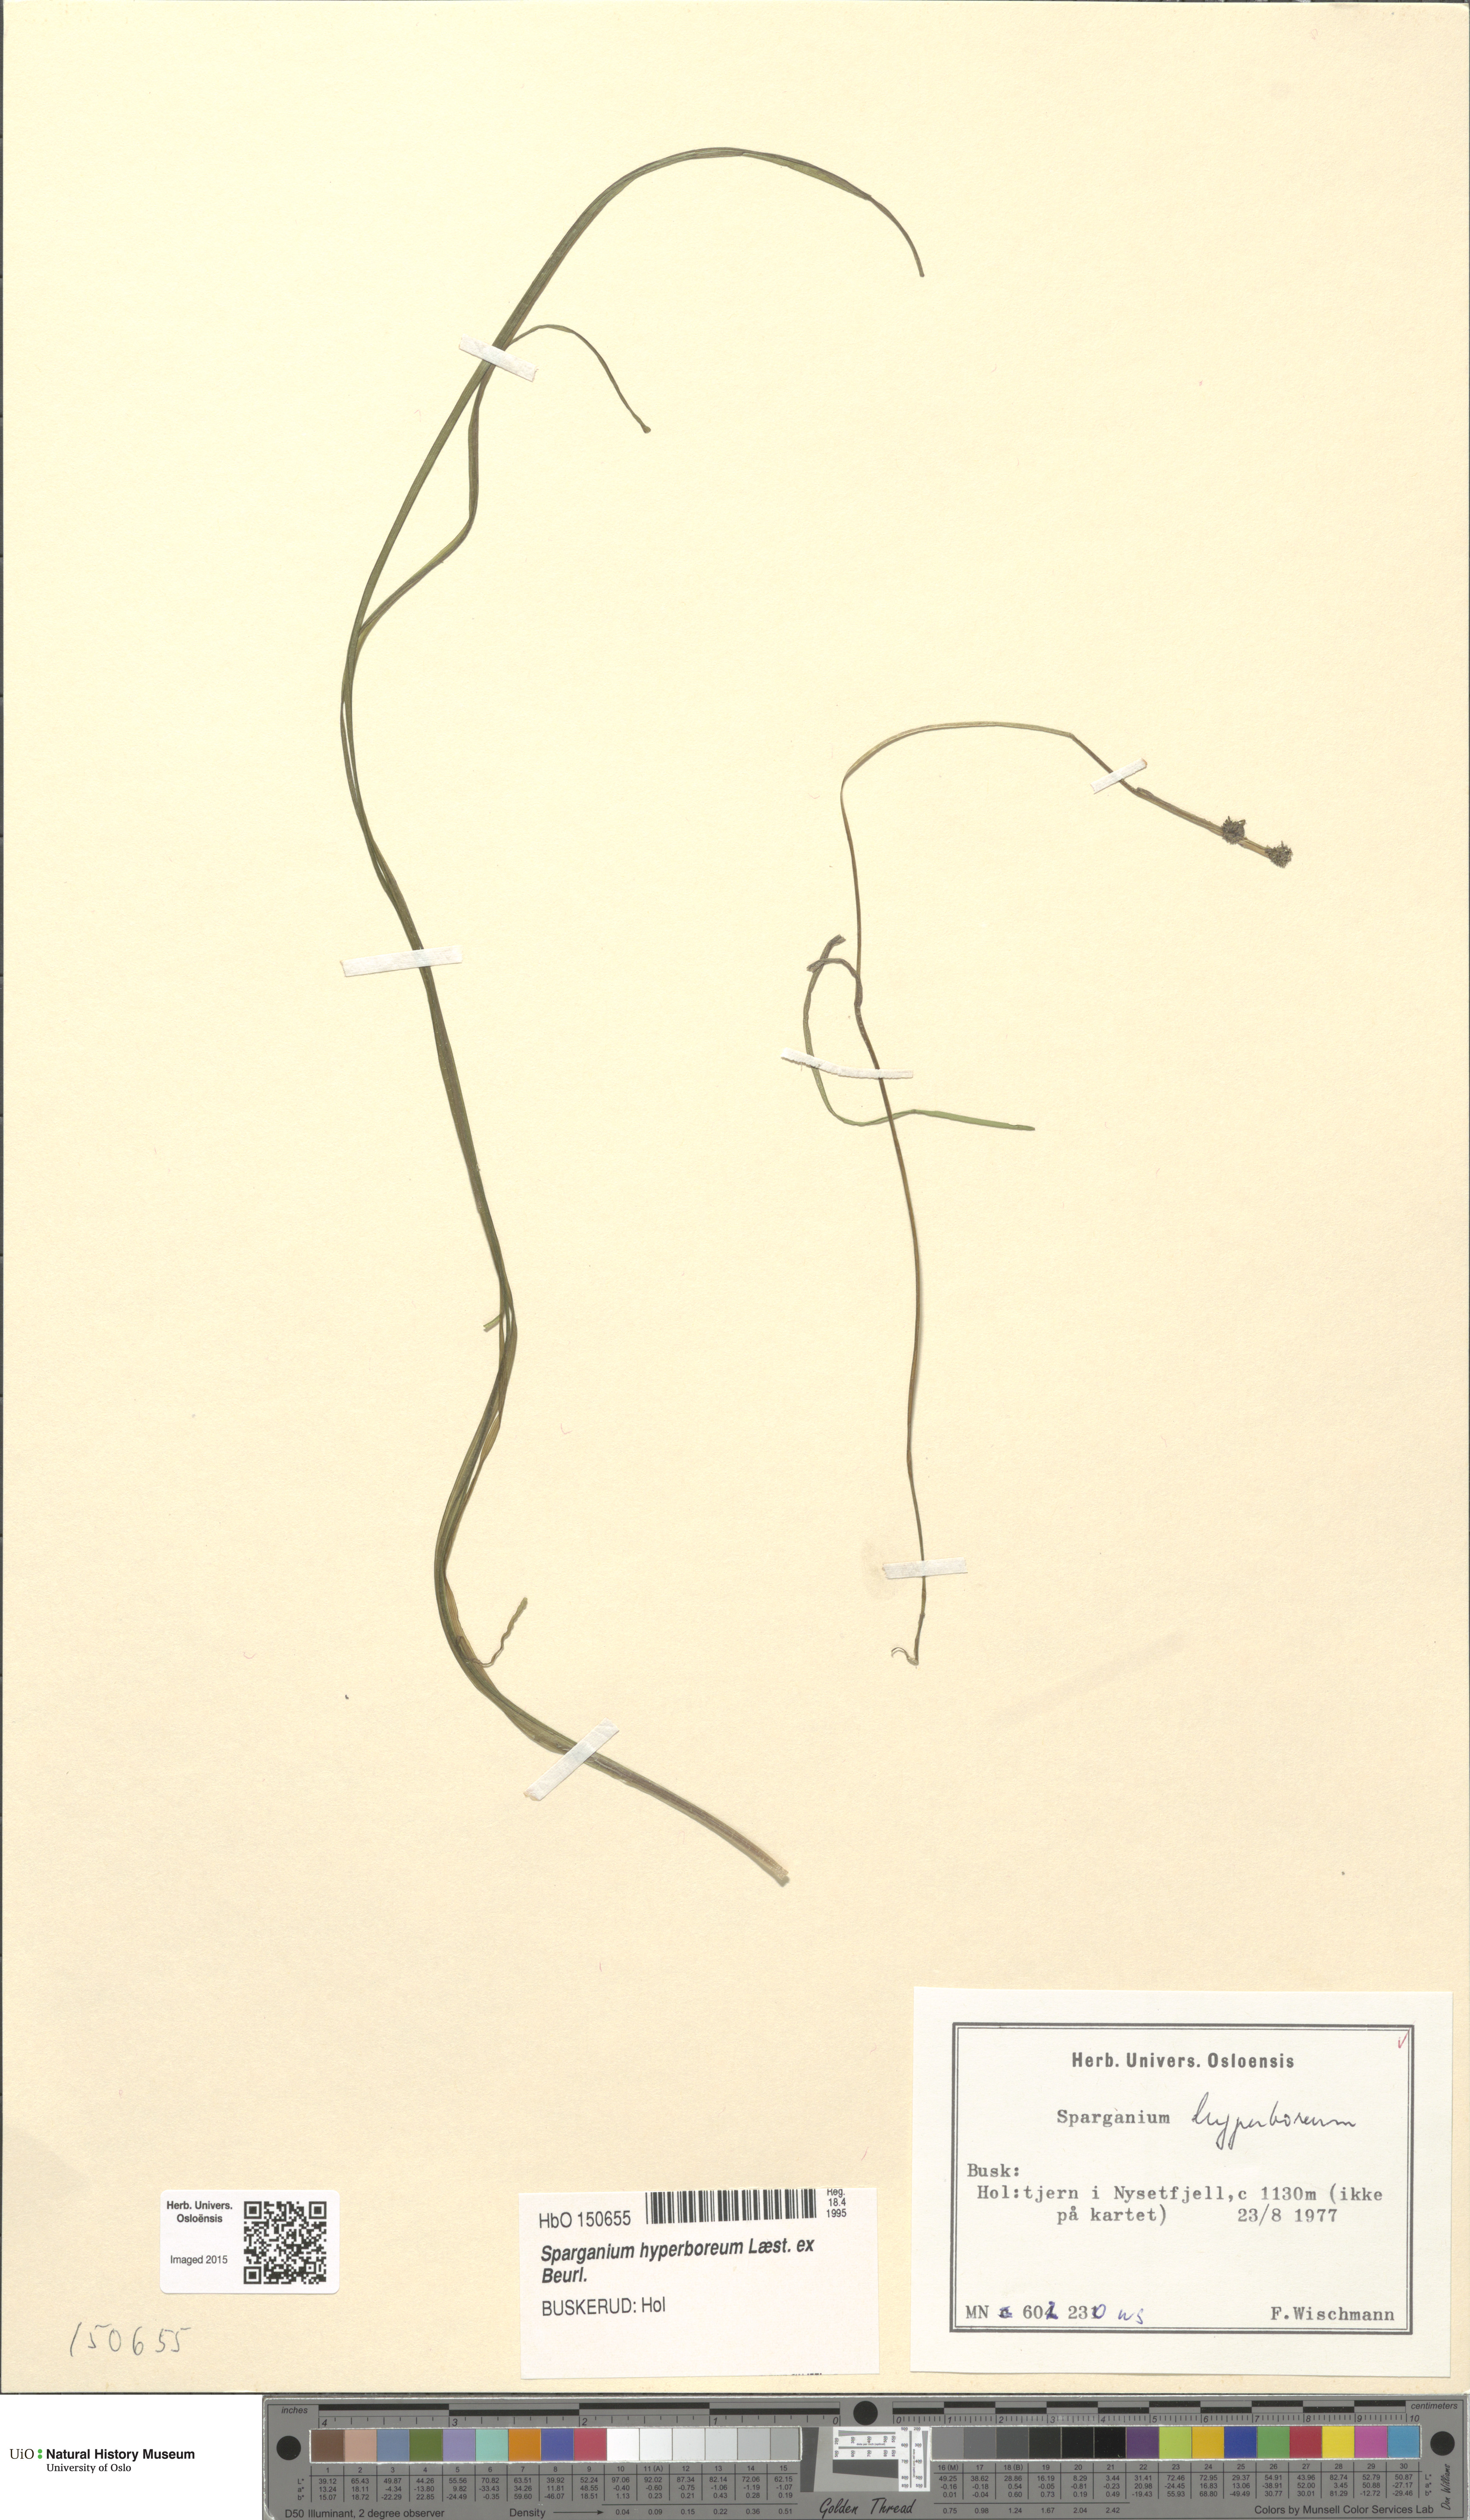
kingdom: Plantae
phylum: Tracheophyta
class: Liliopsida
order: Poales
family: Typhaceae
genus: Sparganium
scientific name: Sparganium hyperboreum
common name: Arctic burreed
